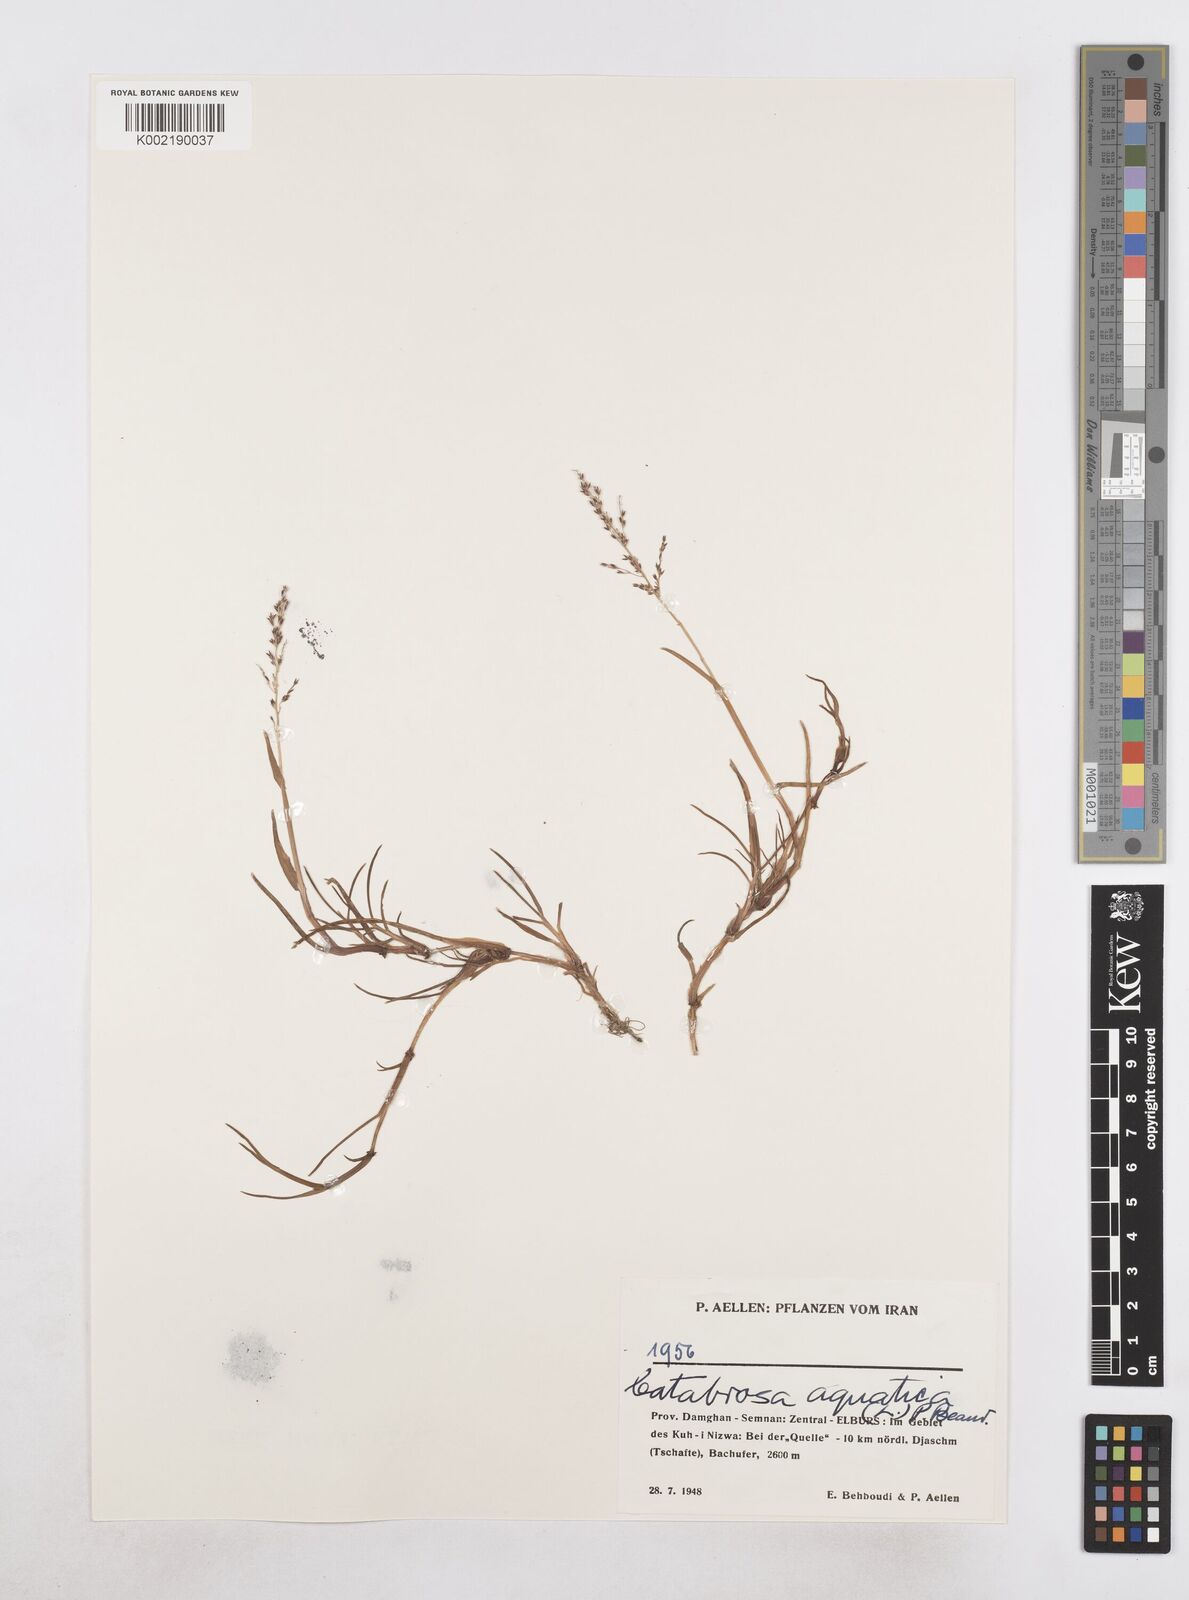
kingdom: Plantae
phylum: Tracheophyta
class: Liliopsida
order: Poales
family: Poaceae
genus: Catabrosa
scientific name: Catabrosa aquatica
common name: Whorl-grass
